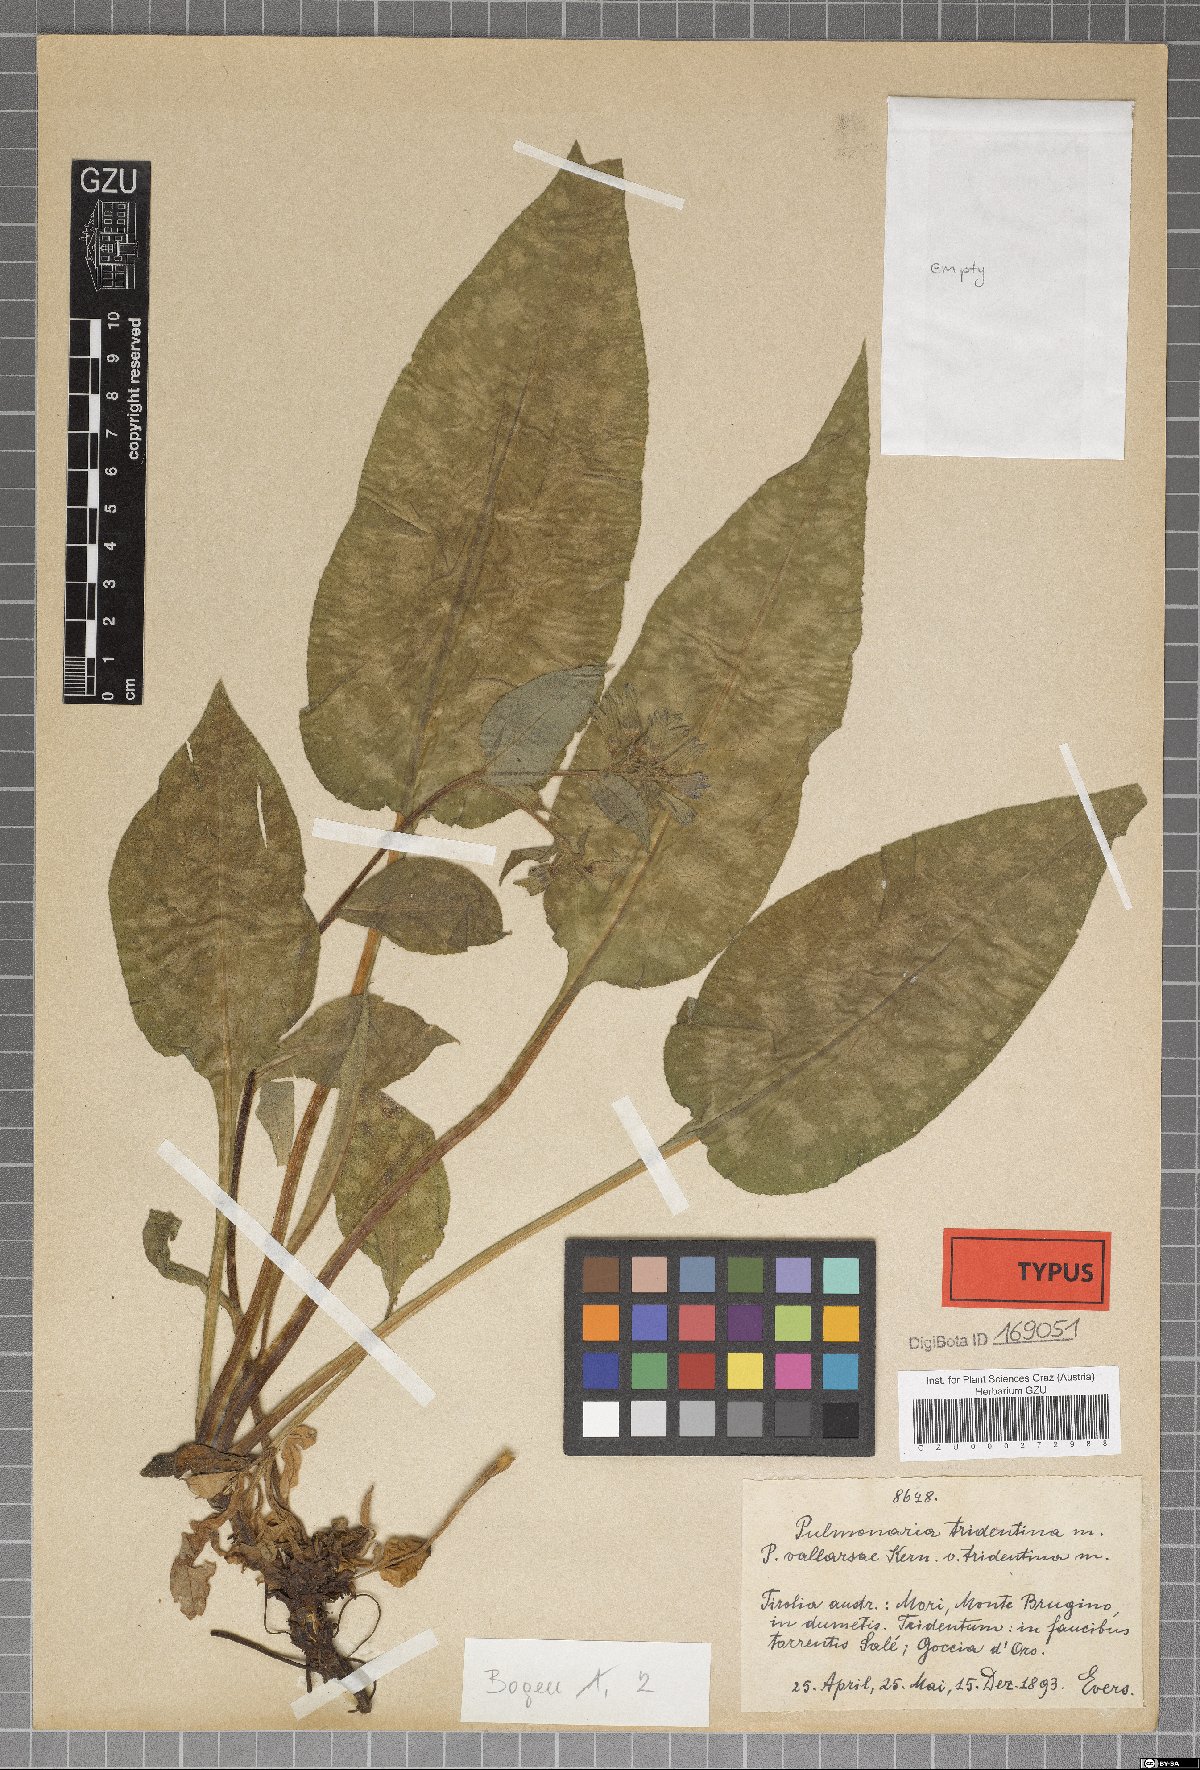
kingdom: Plantae
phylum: Tracheophyta
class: Magnoliopsida
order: Boraginales
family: Boraginaceae
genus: Pulmonaria
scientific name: Pulmonaria officinalis
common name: Lungwort
